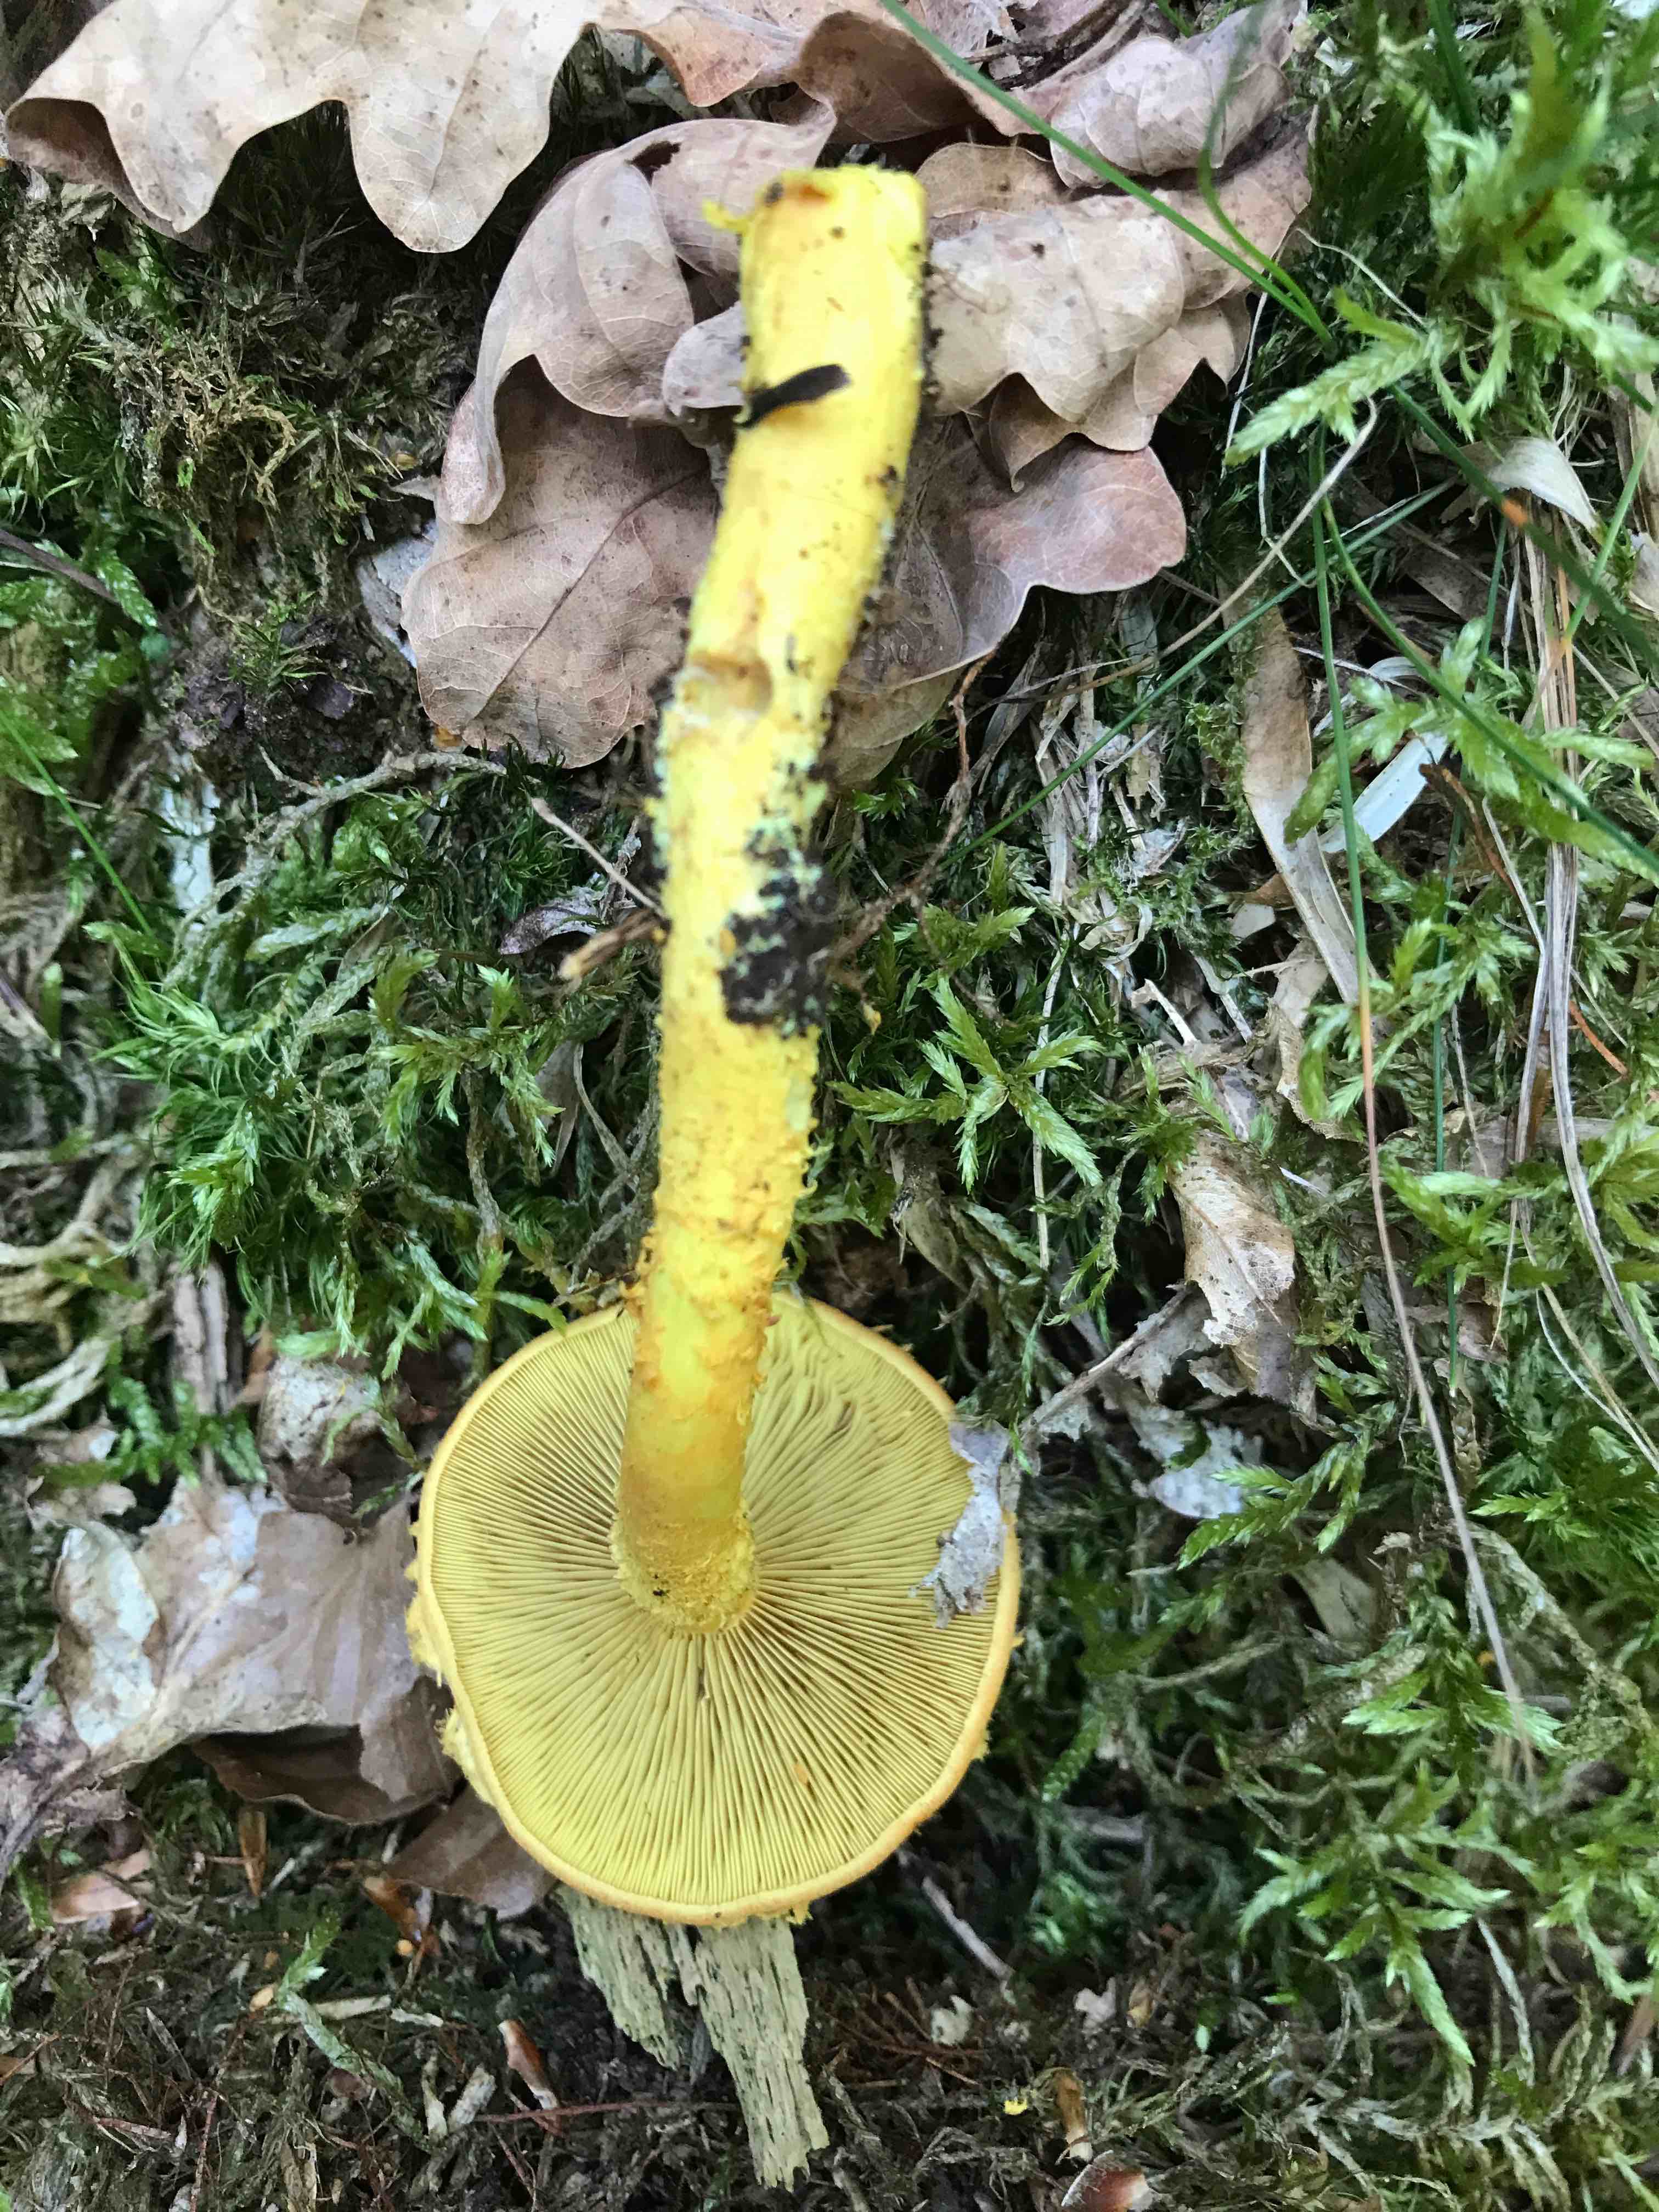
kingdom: Fungi
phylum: Basidiomycota
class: Agaricomycetes
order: Agaricales
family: Strophariaceae
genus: Pholiota
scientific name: Pholiota flammans
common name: flamme-skælhat
